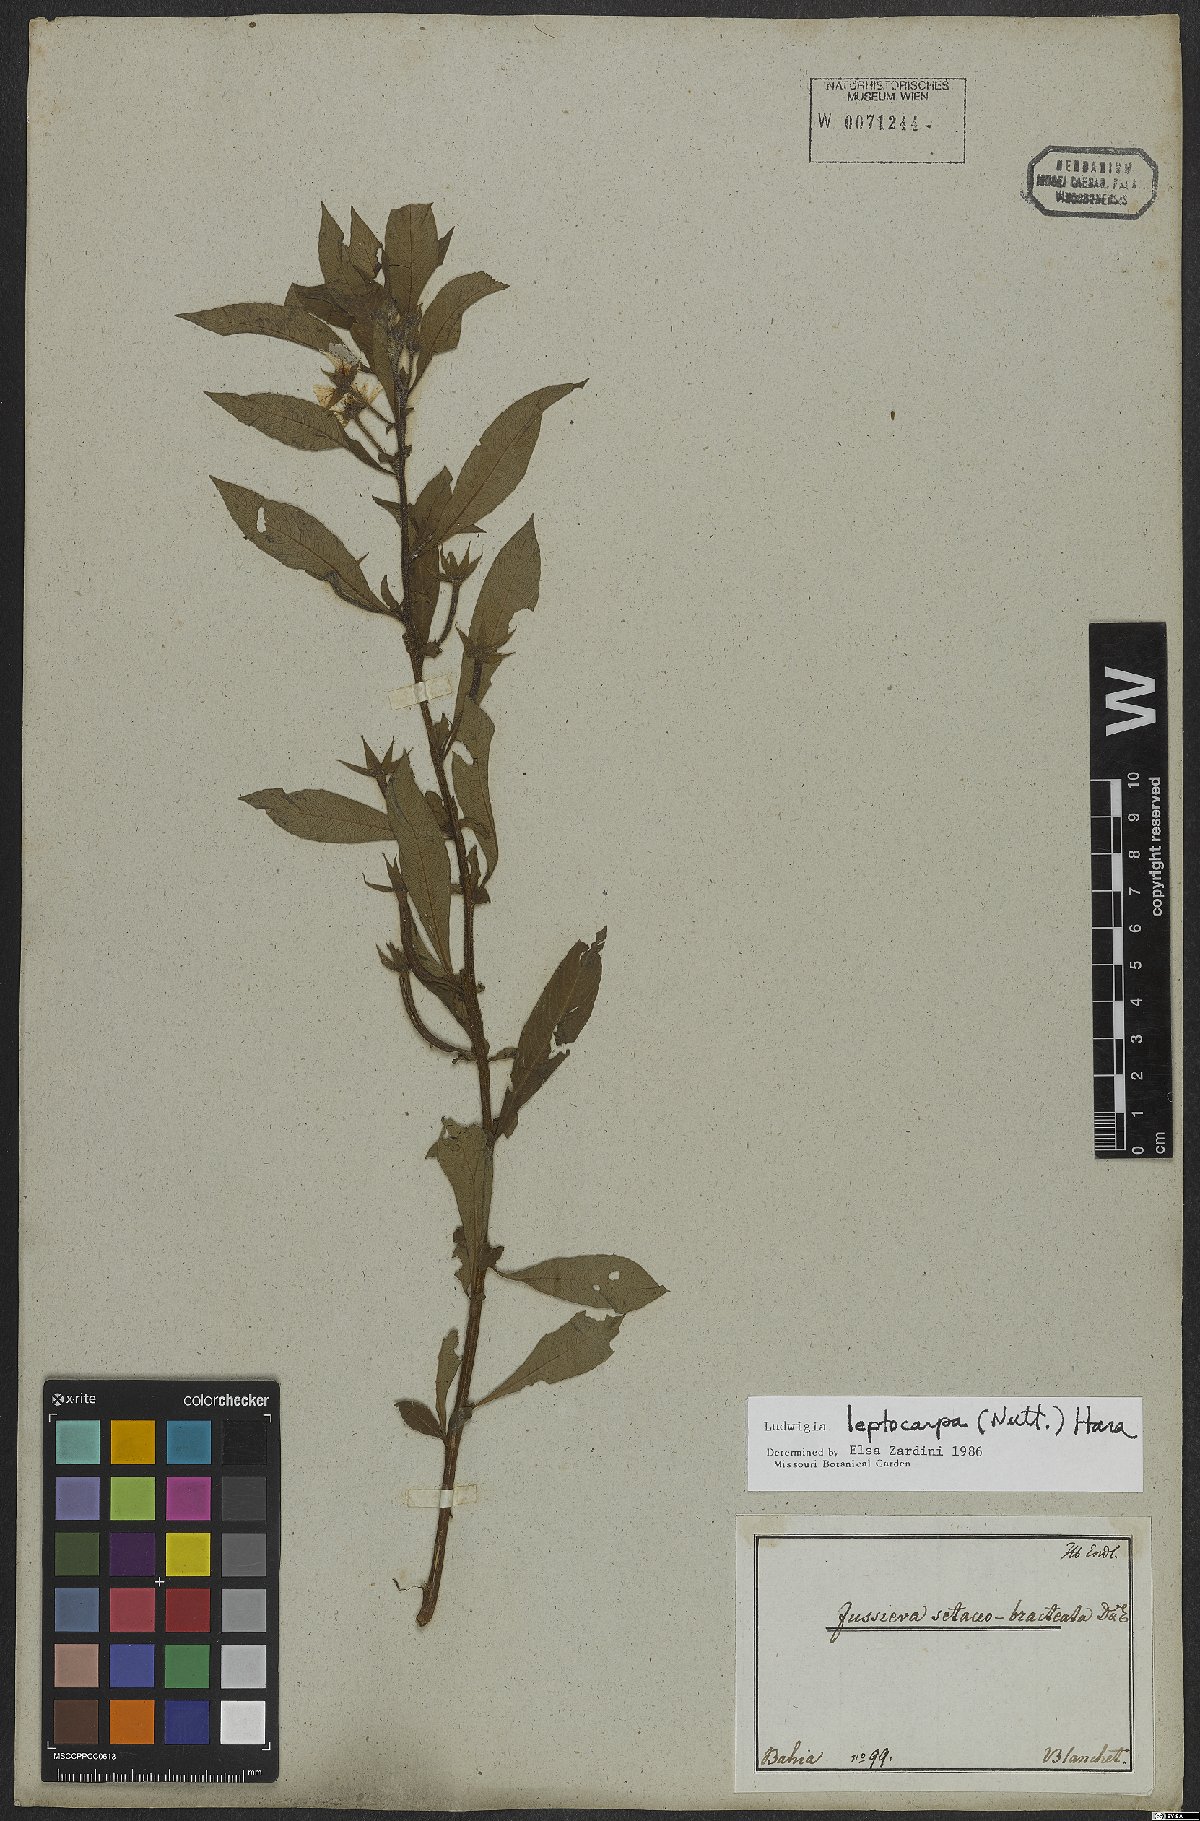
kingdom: Plantae
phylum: Tracheophyta
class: Magnoliopsida
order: Myrtales
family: Onagraceae
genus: Ludwigia
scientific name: Ludwigia leptocarpa
